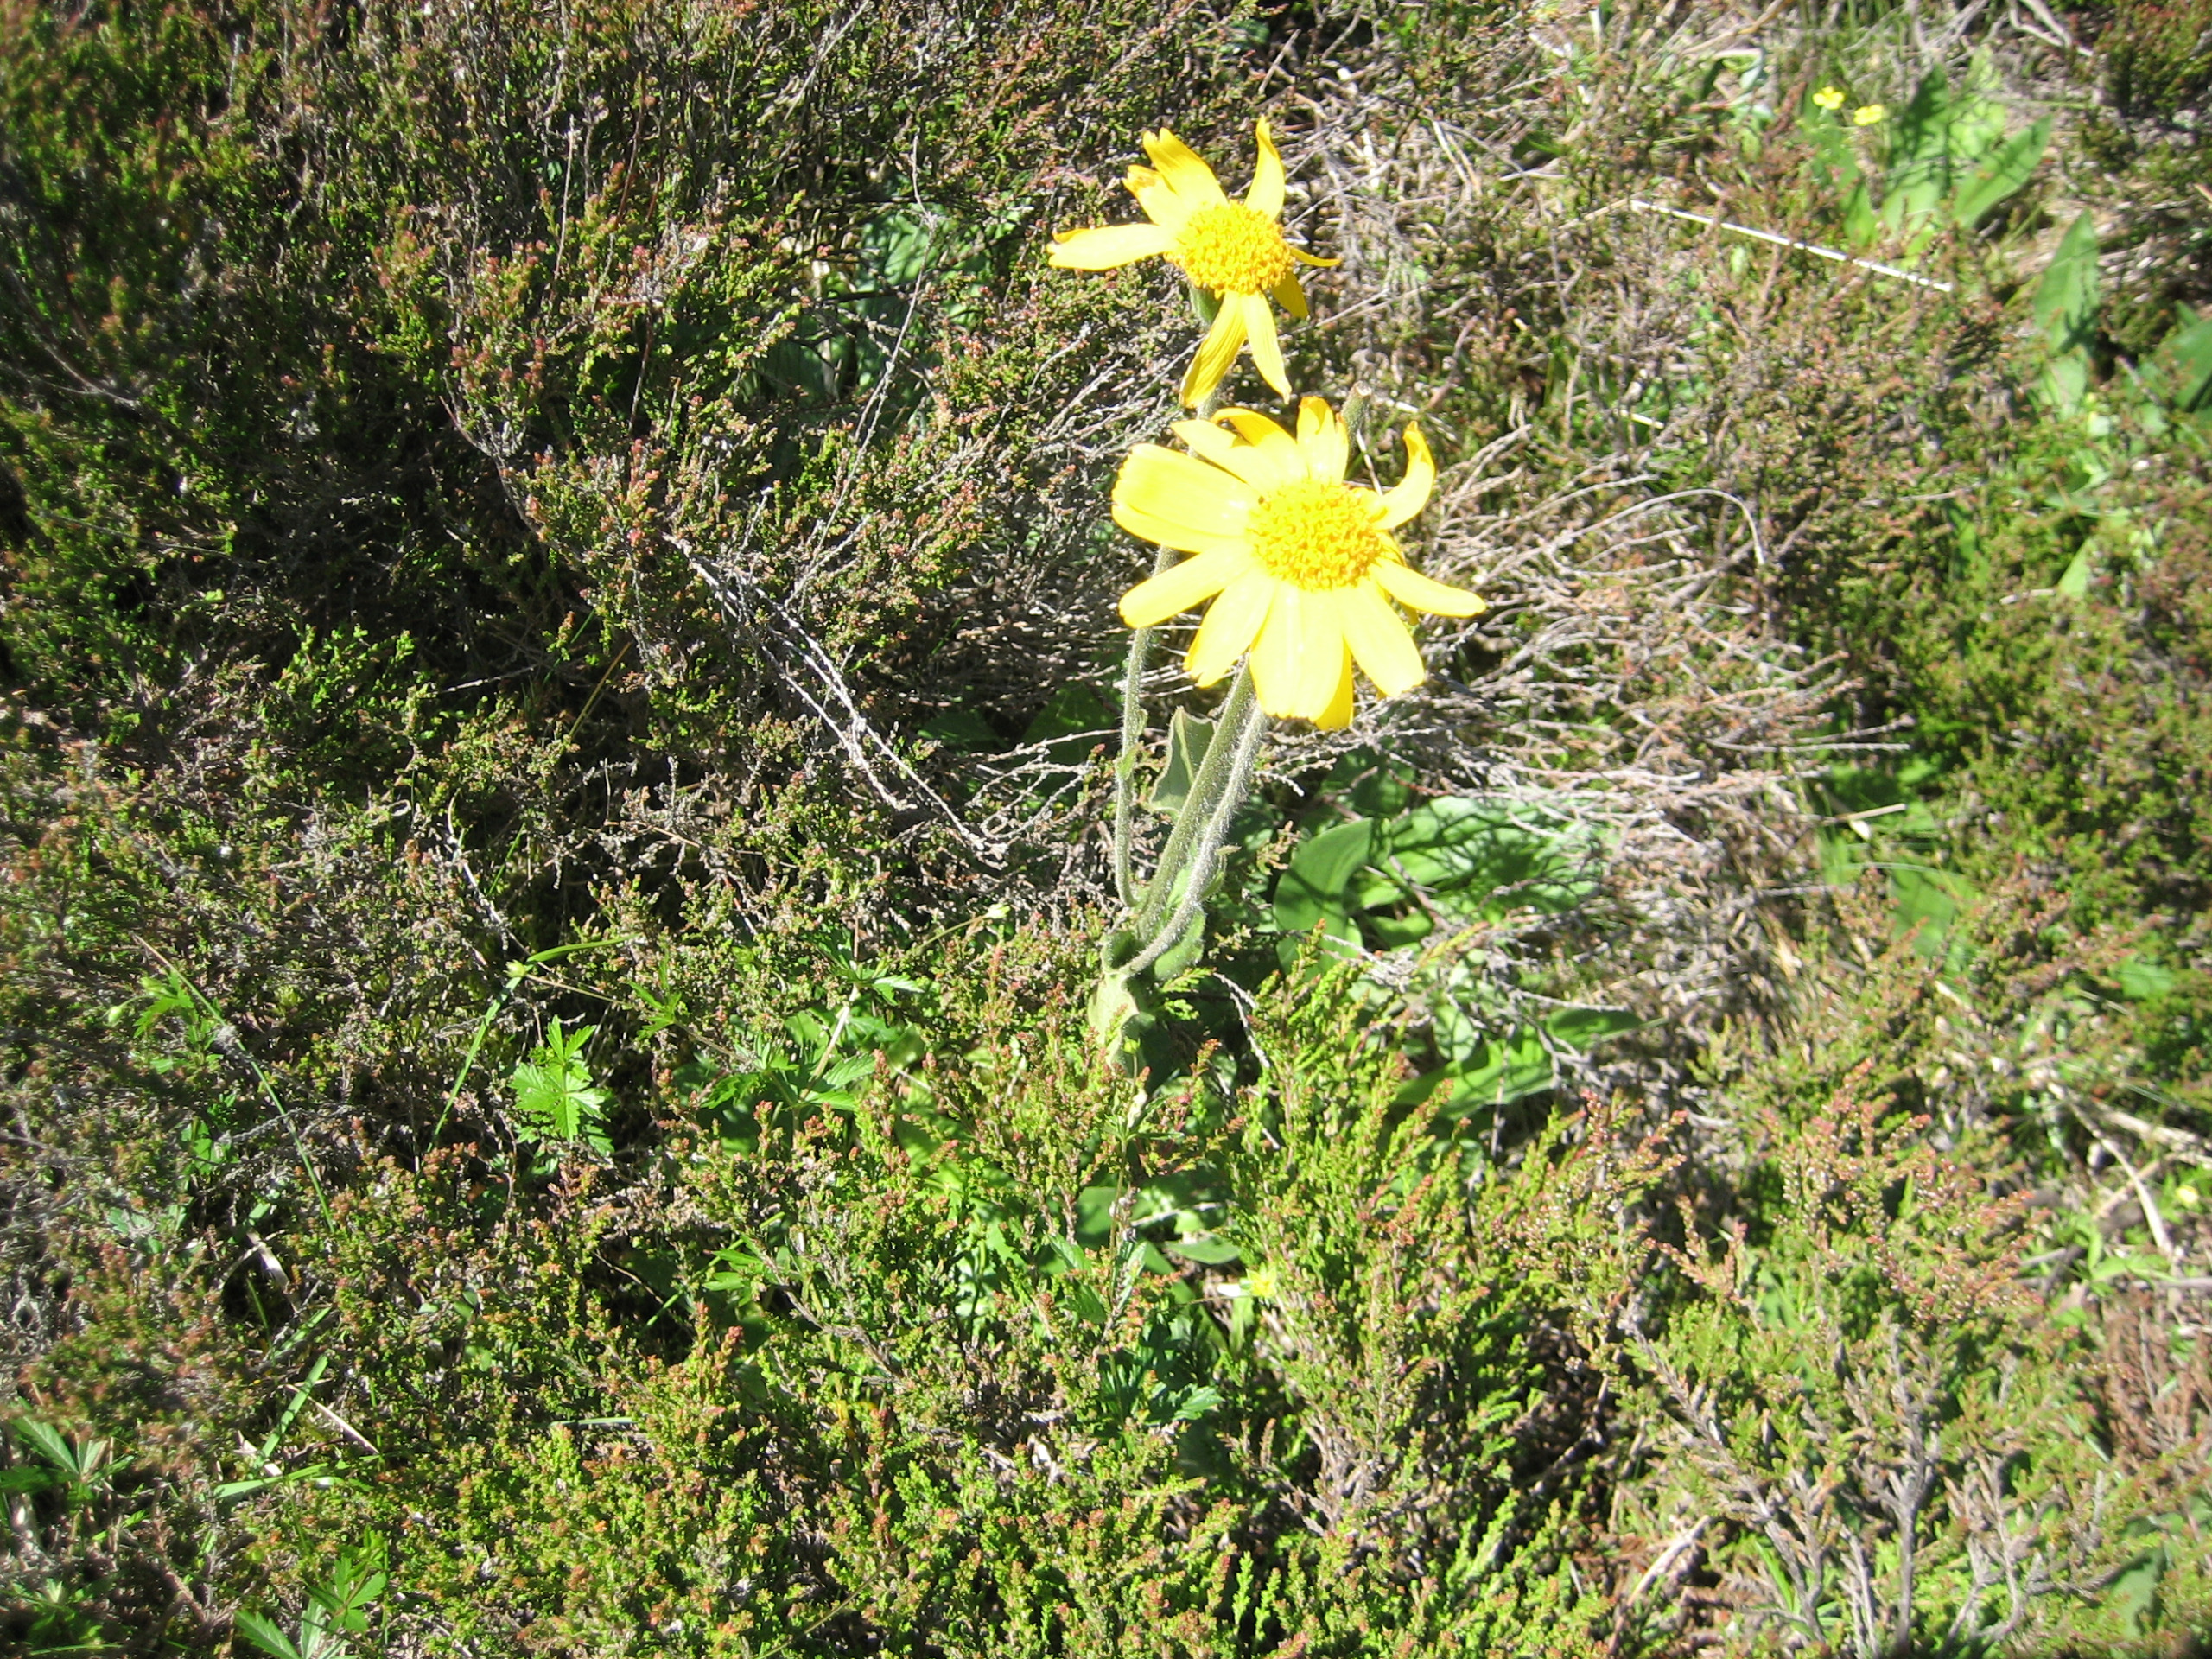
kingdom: Plantae
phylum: Tracheophyta
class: Magnoliopsida
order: Asterales
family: Asteraceae
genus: Arnica
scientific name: Arnica montana
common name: Guldblomme
